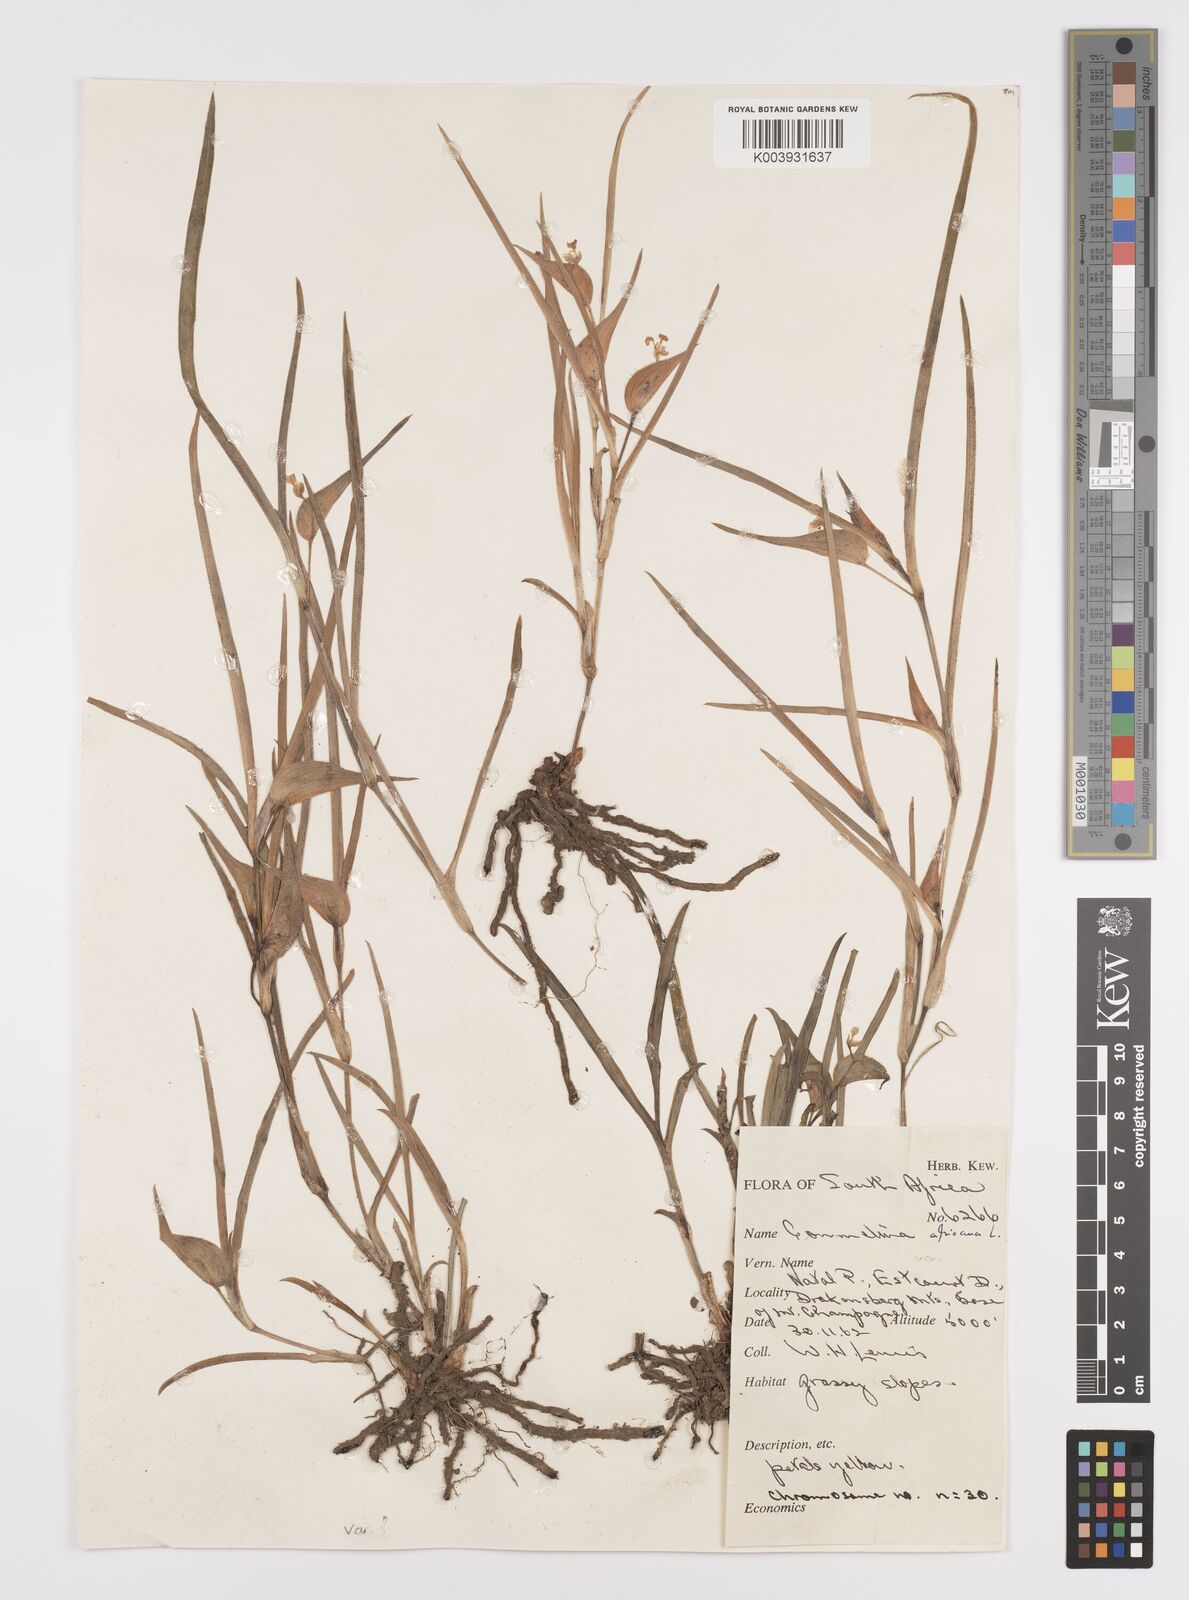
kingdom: Plantae
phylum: Tracheophyta
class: Liliopsida
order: Commelinales
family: Commelinaceae
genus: Commelina
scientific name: Commelina africana
